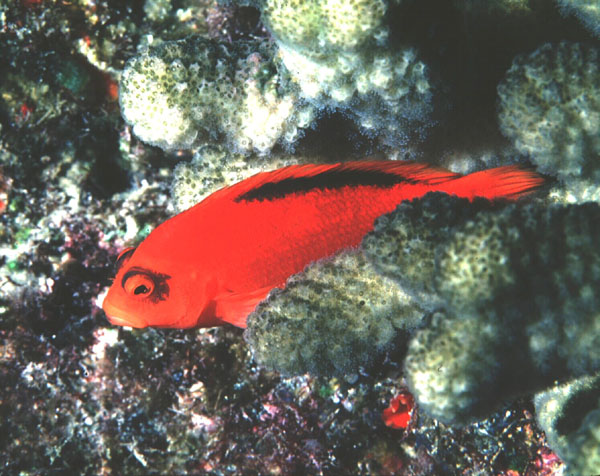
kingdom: Animalia
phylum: Chordata
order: Perciformes
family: Cirrhitidae
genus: Neocirrhites
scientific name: Neocirrhites armatus
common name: Brilliant red hawkfish
